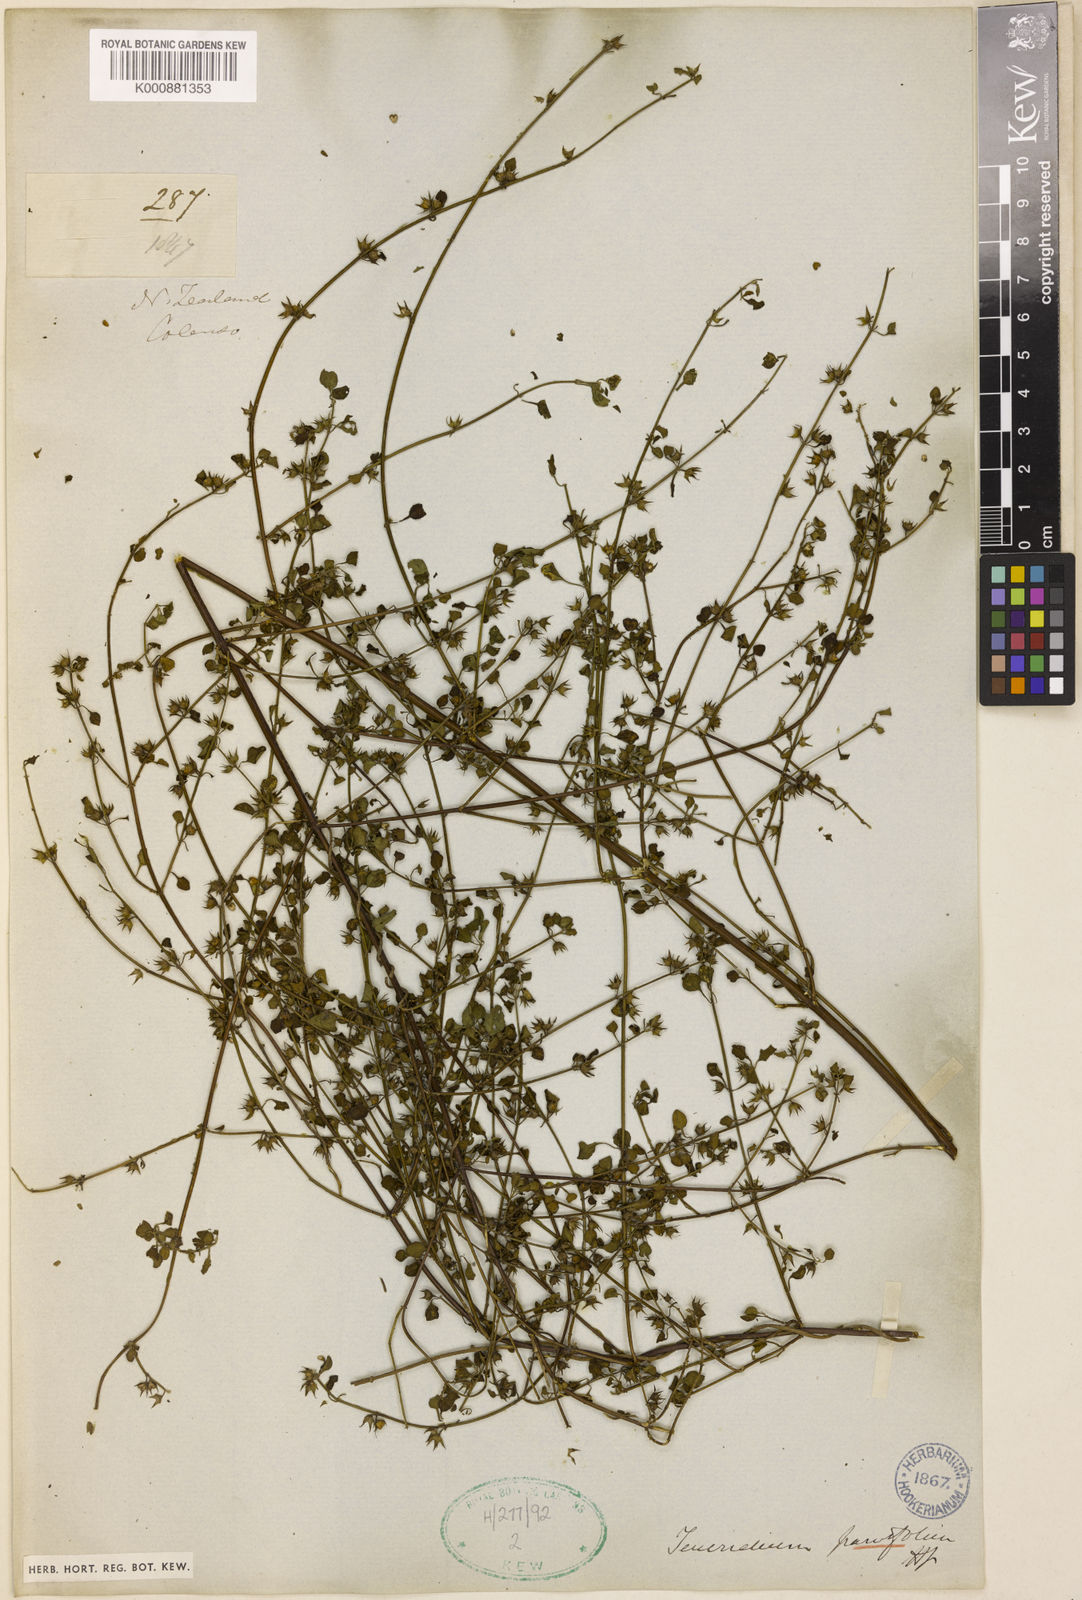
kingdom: Plantae
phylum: Tracheophyta
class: Magnoliopsida
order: Lamiales
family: Lamiaceae
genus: Teucrium
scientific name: Teucrium parvifolium
